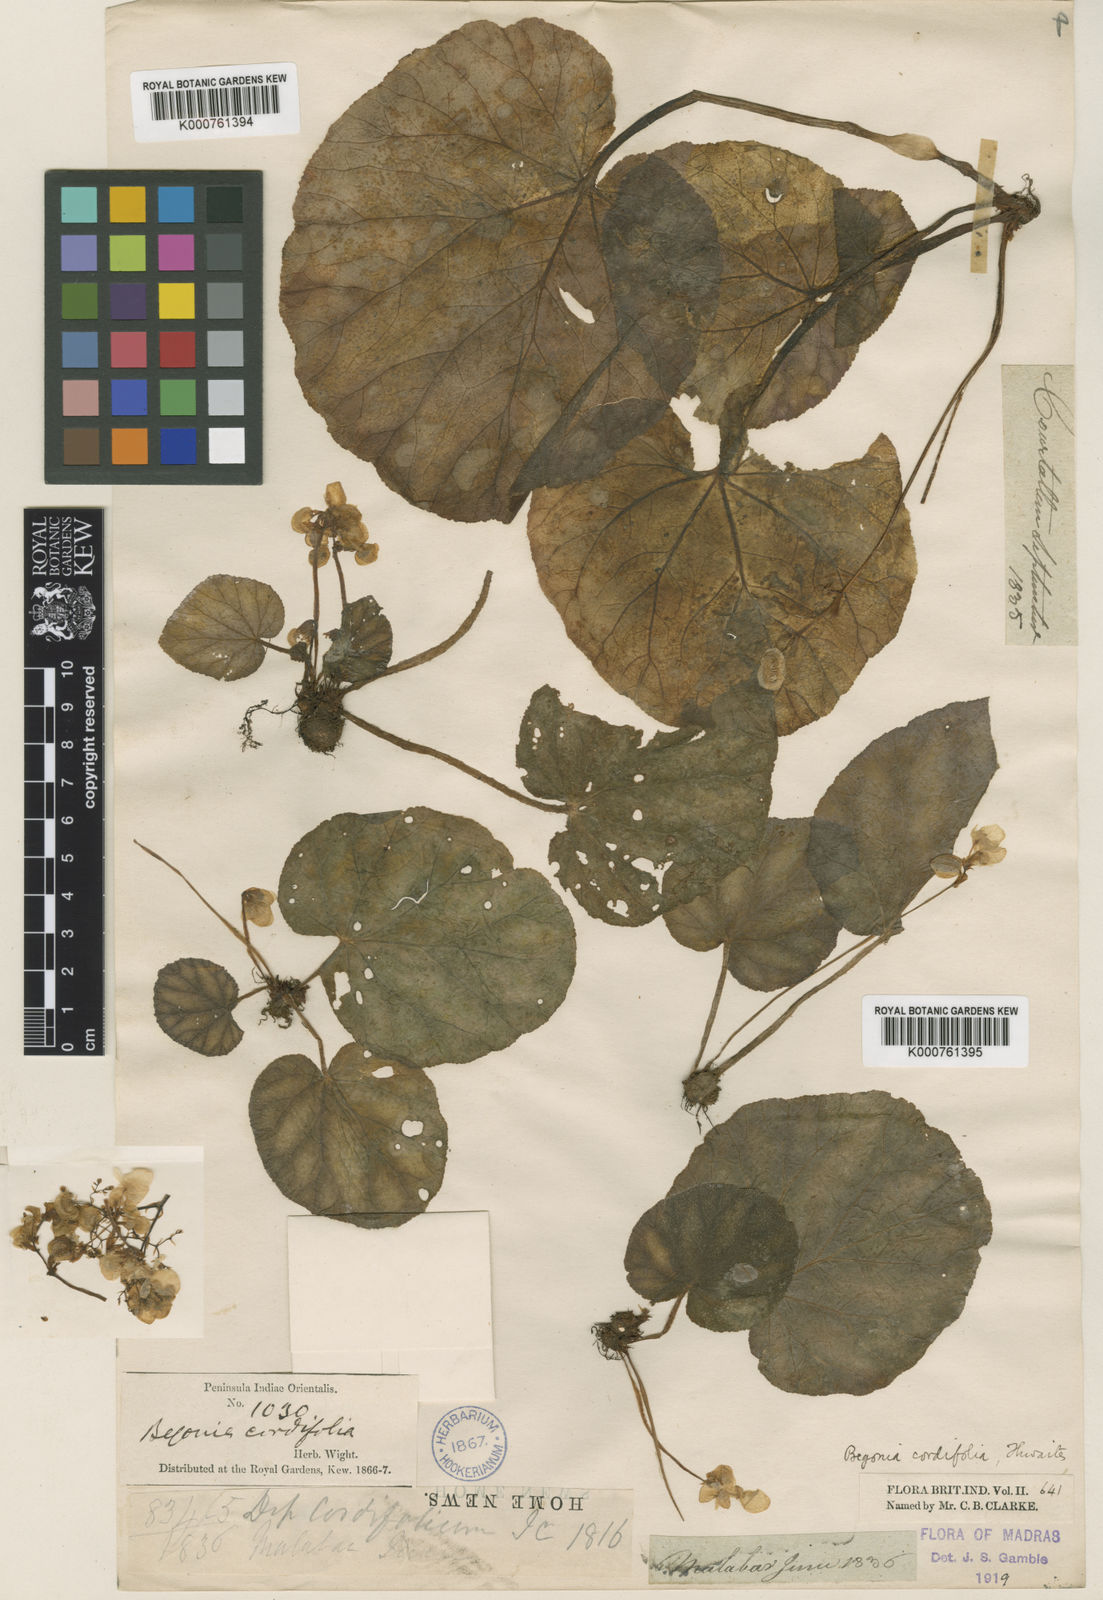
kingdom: Plantae
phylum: Tracheophyta
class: Magnoliopsida
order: Cucurbitales
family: Begoniaceae
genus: Begonia
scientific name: Begonia cordifolia
